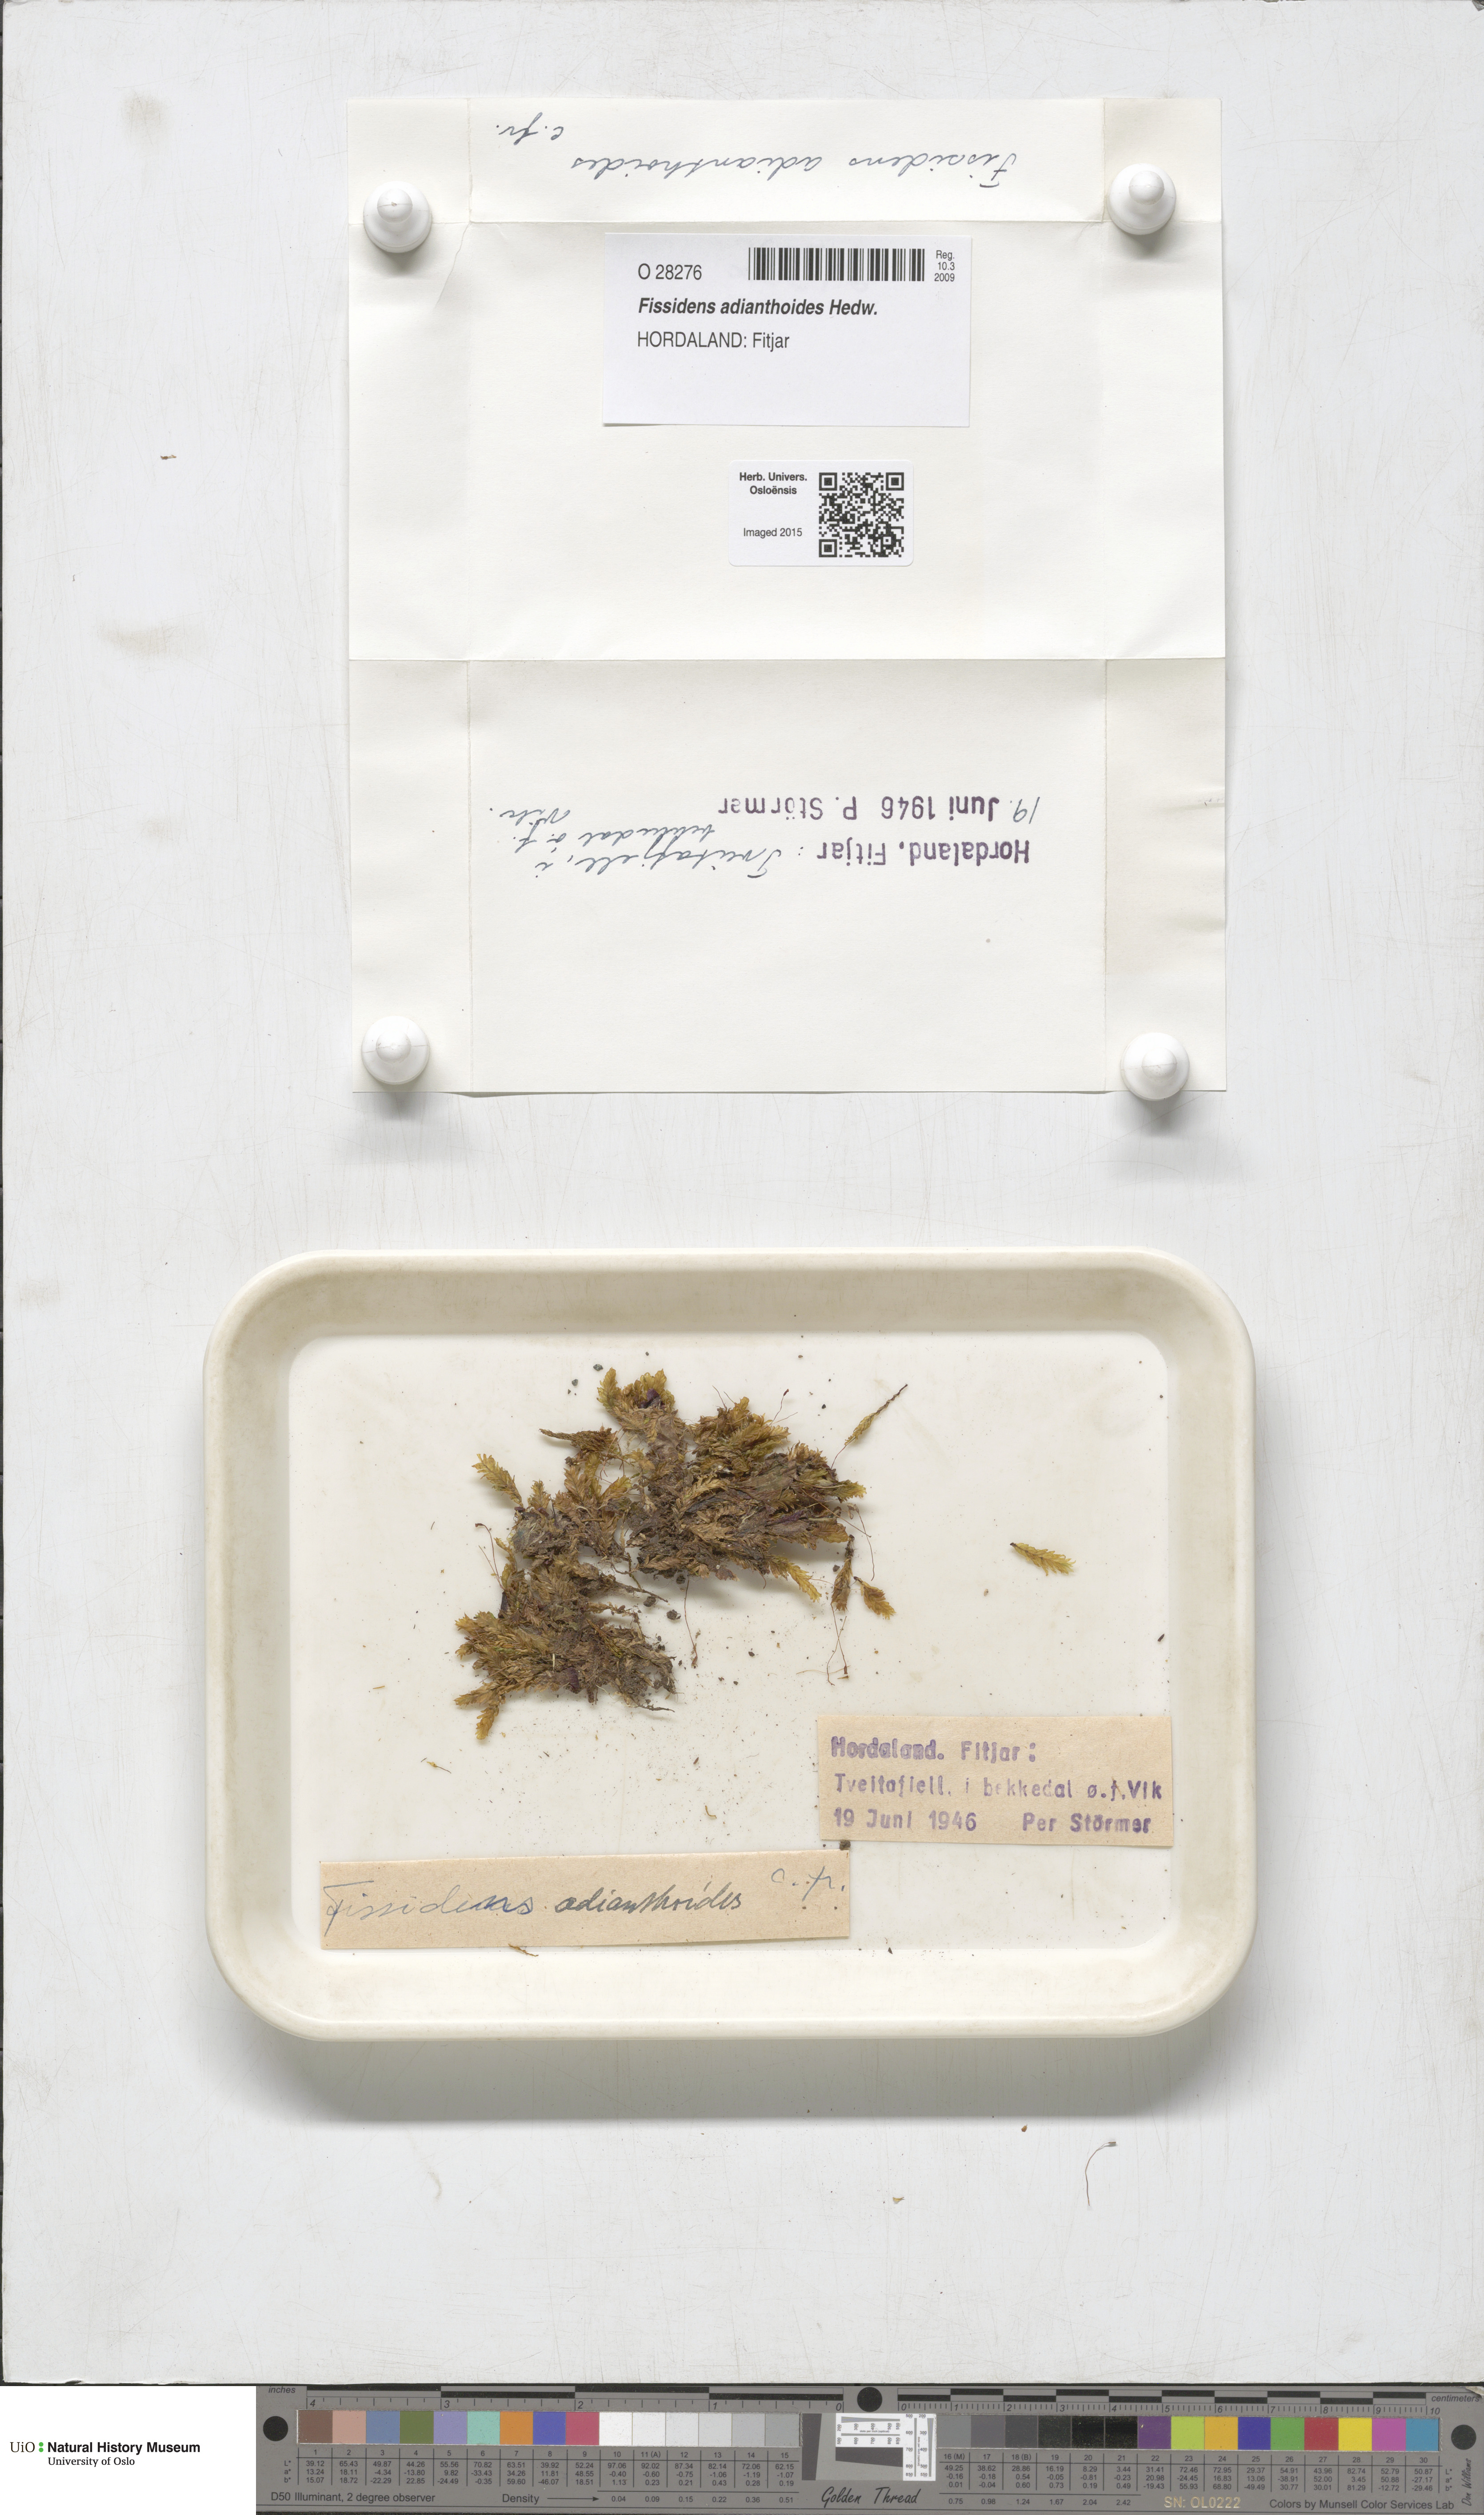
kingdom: Plantae
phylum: Bryophyta
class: Bryopsida
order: Dicranales
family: Fissidentaceae
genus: Fissidens
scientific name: Fissidens adianthoides
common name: Maidenhair pocket moss
